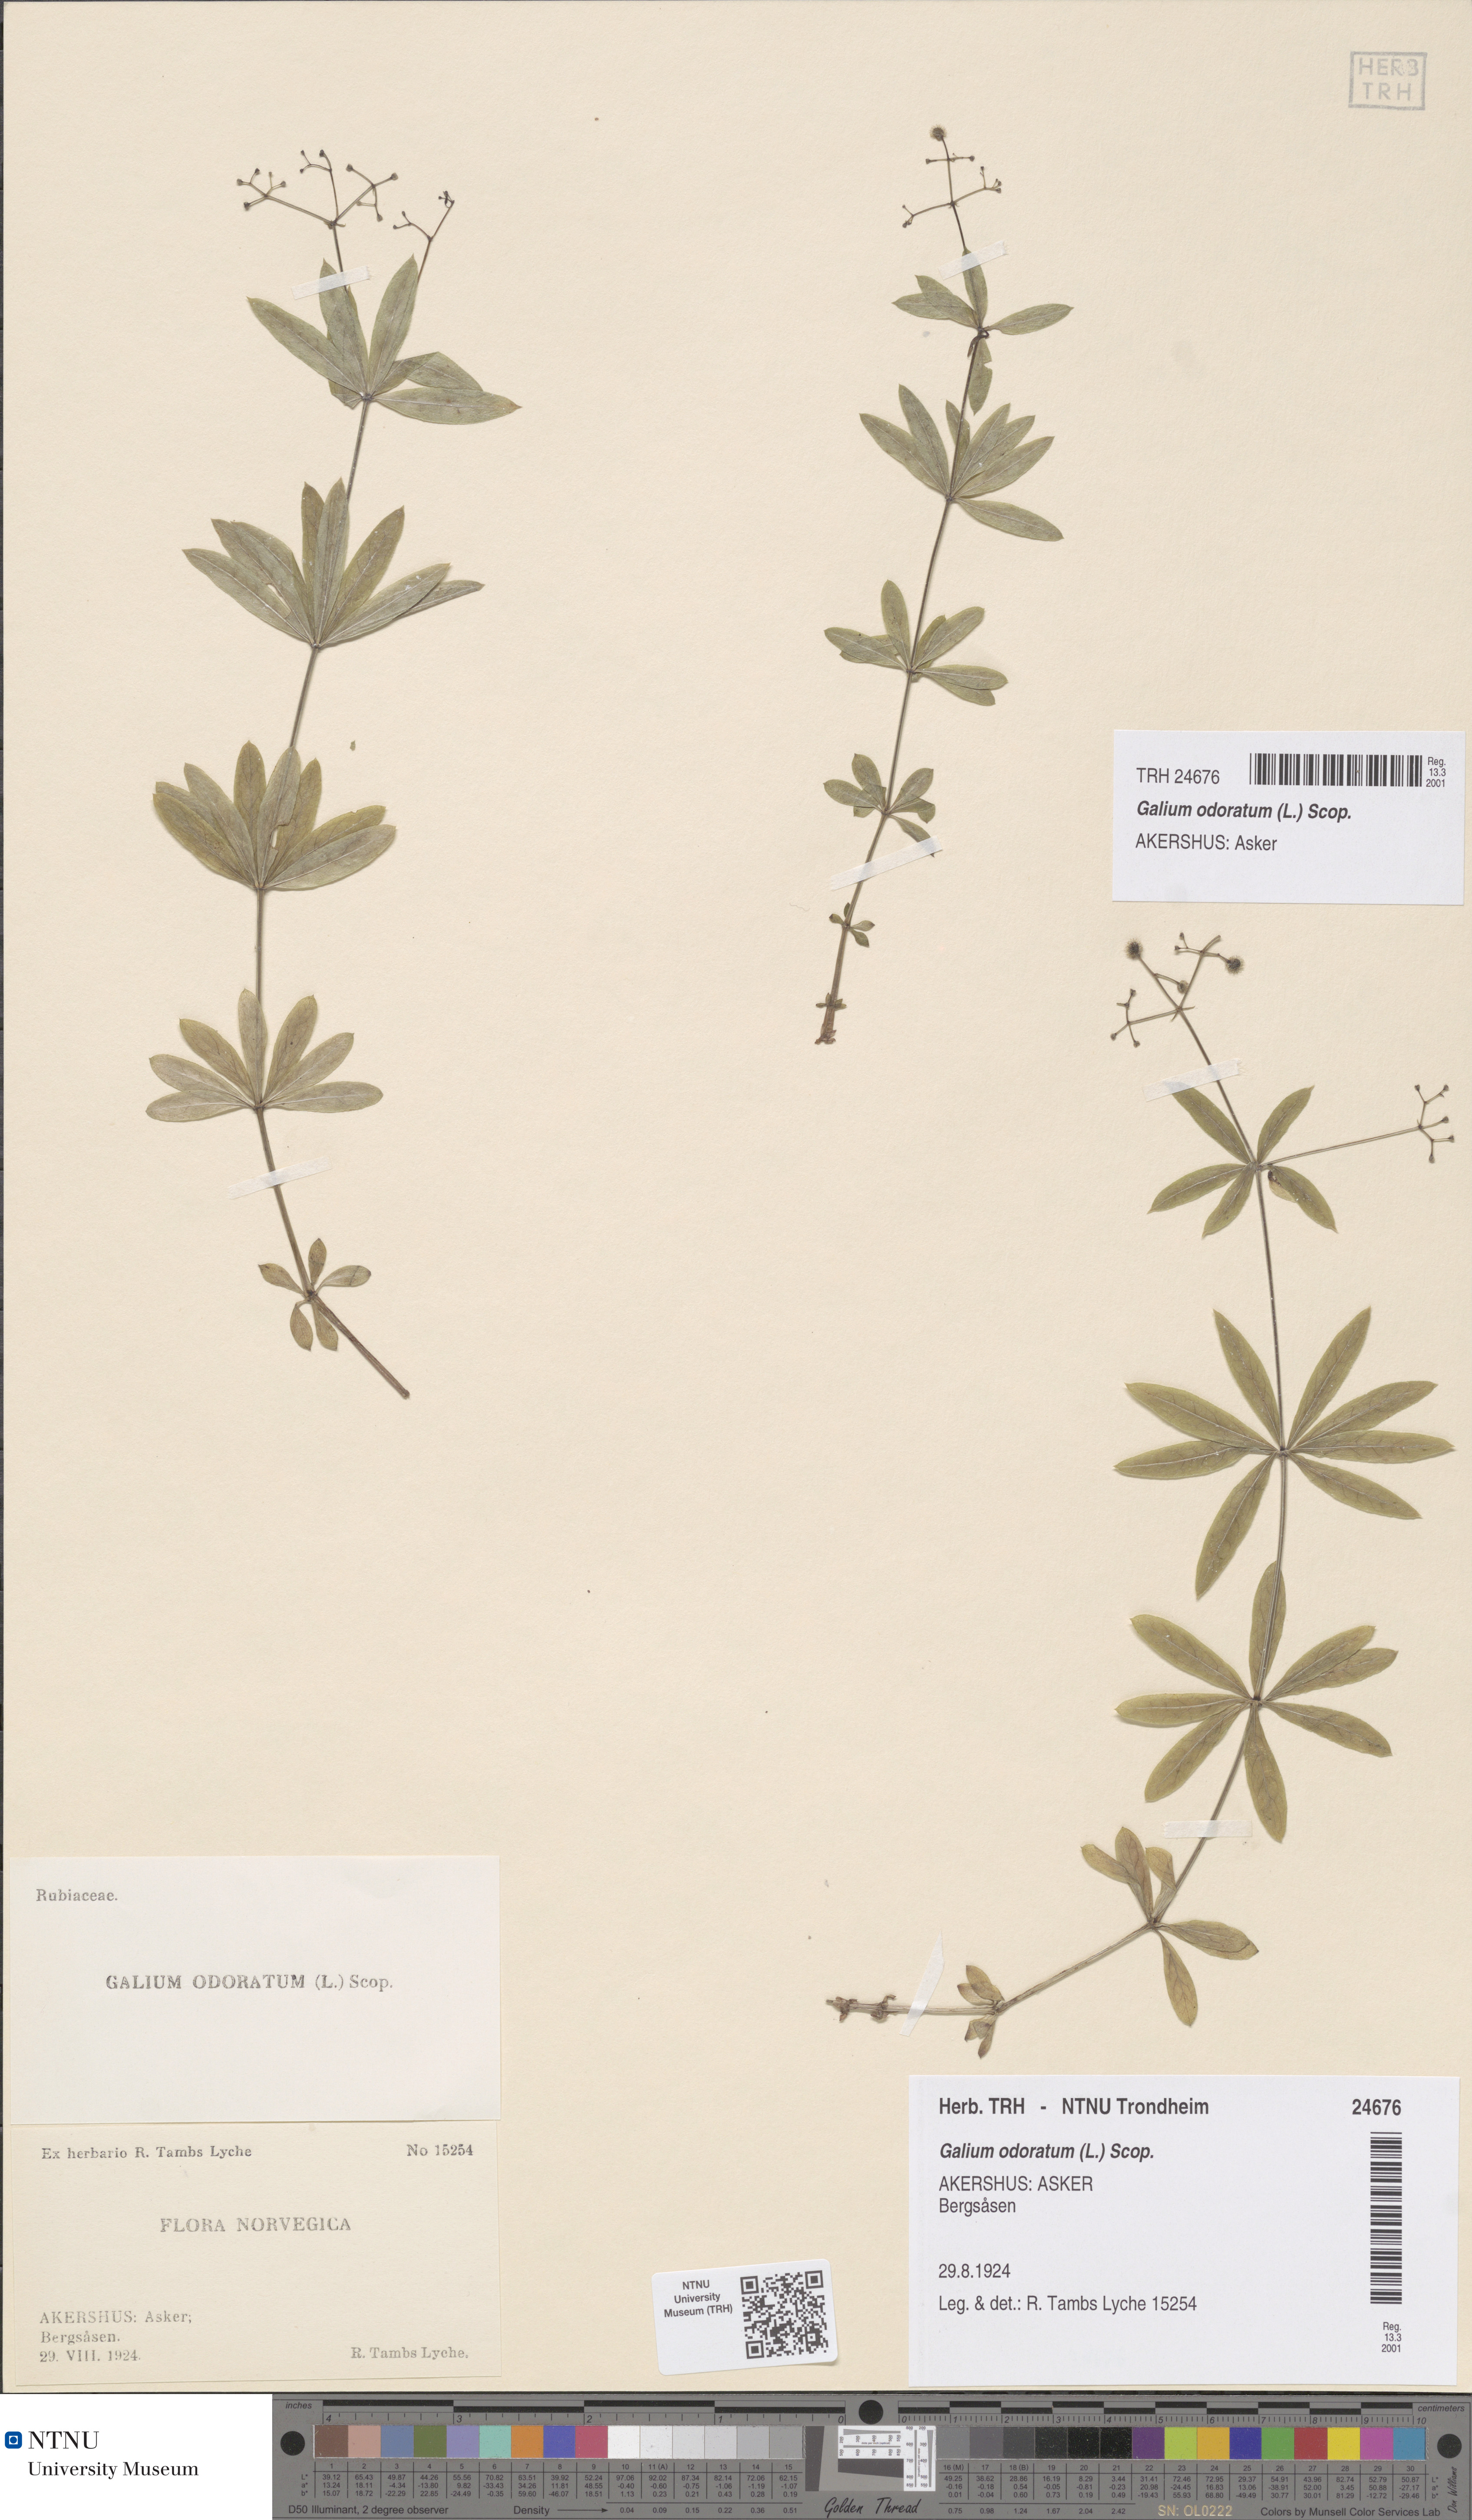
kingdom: Plantae
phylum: Tracheophyta
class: Magnoliopsida
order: Gentianales
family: Rubiaceae
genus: Galium
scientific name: Galium odoratum
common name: Sweet woodruff
